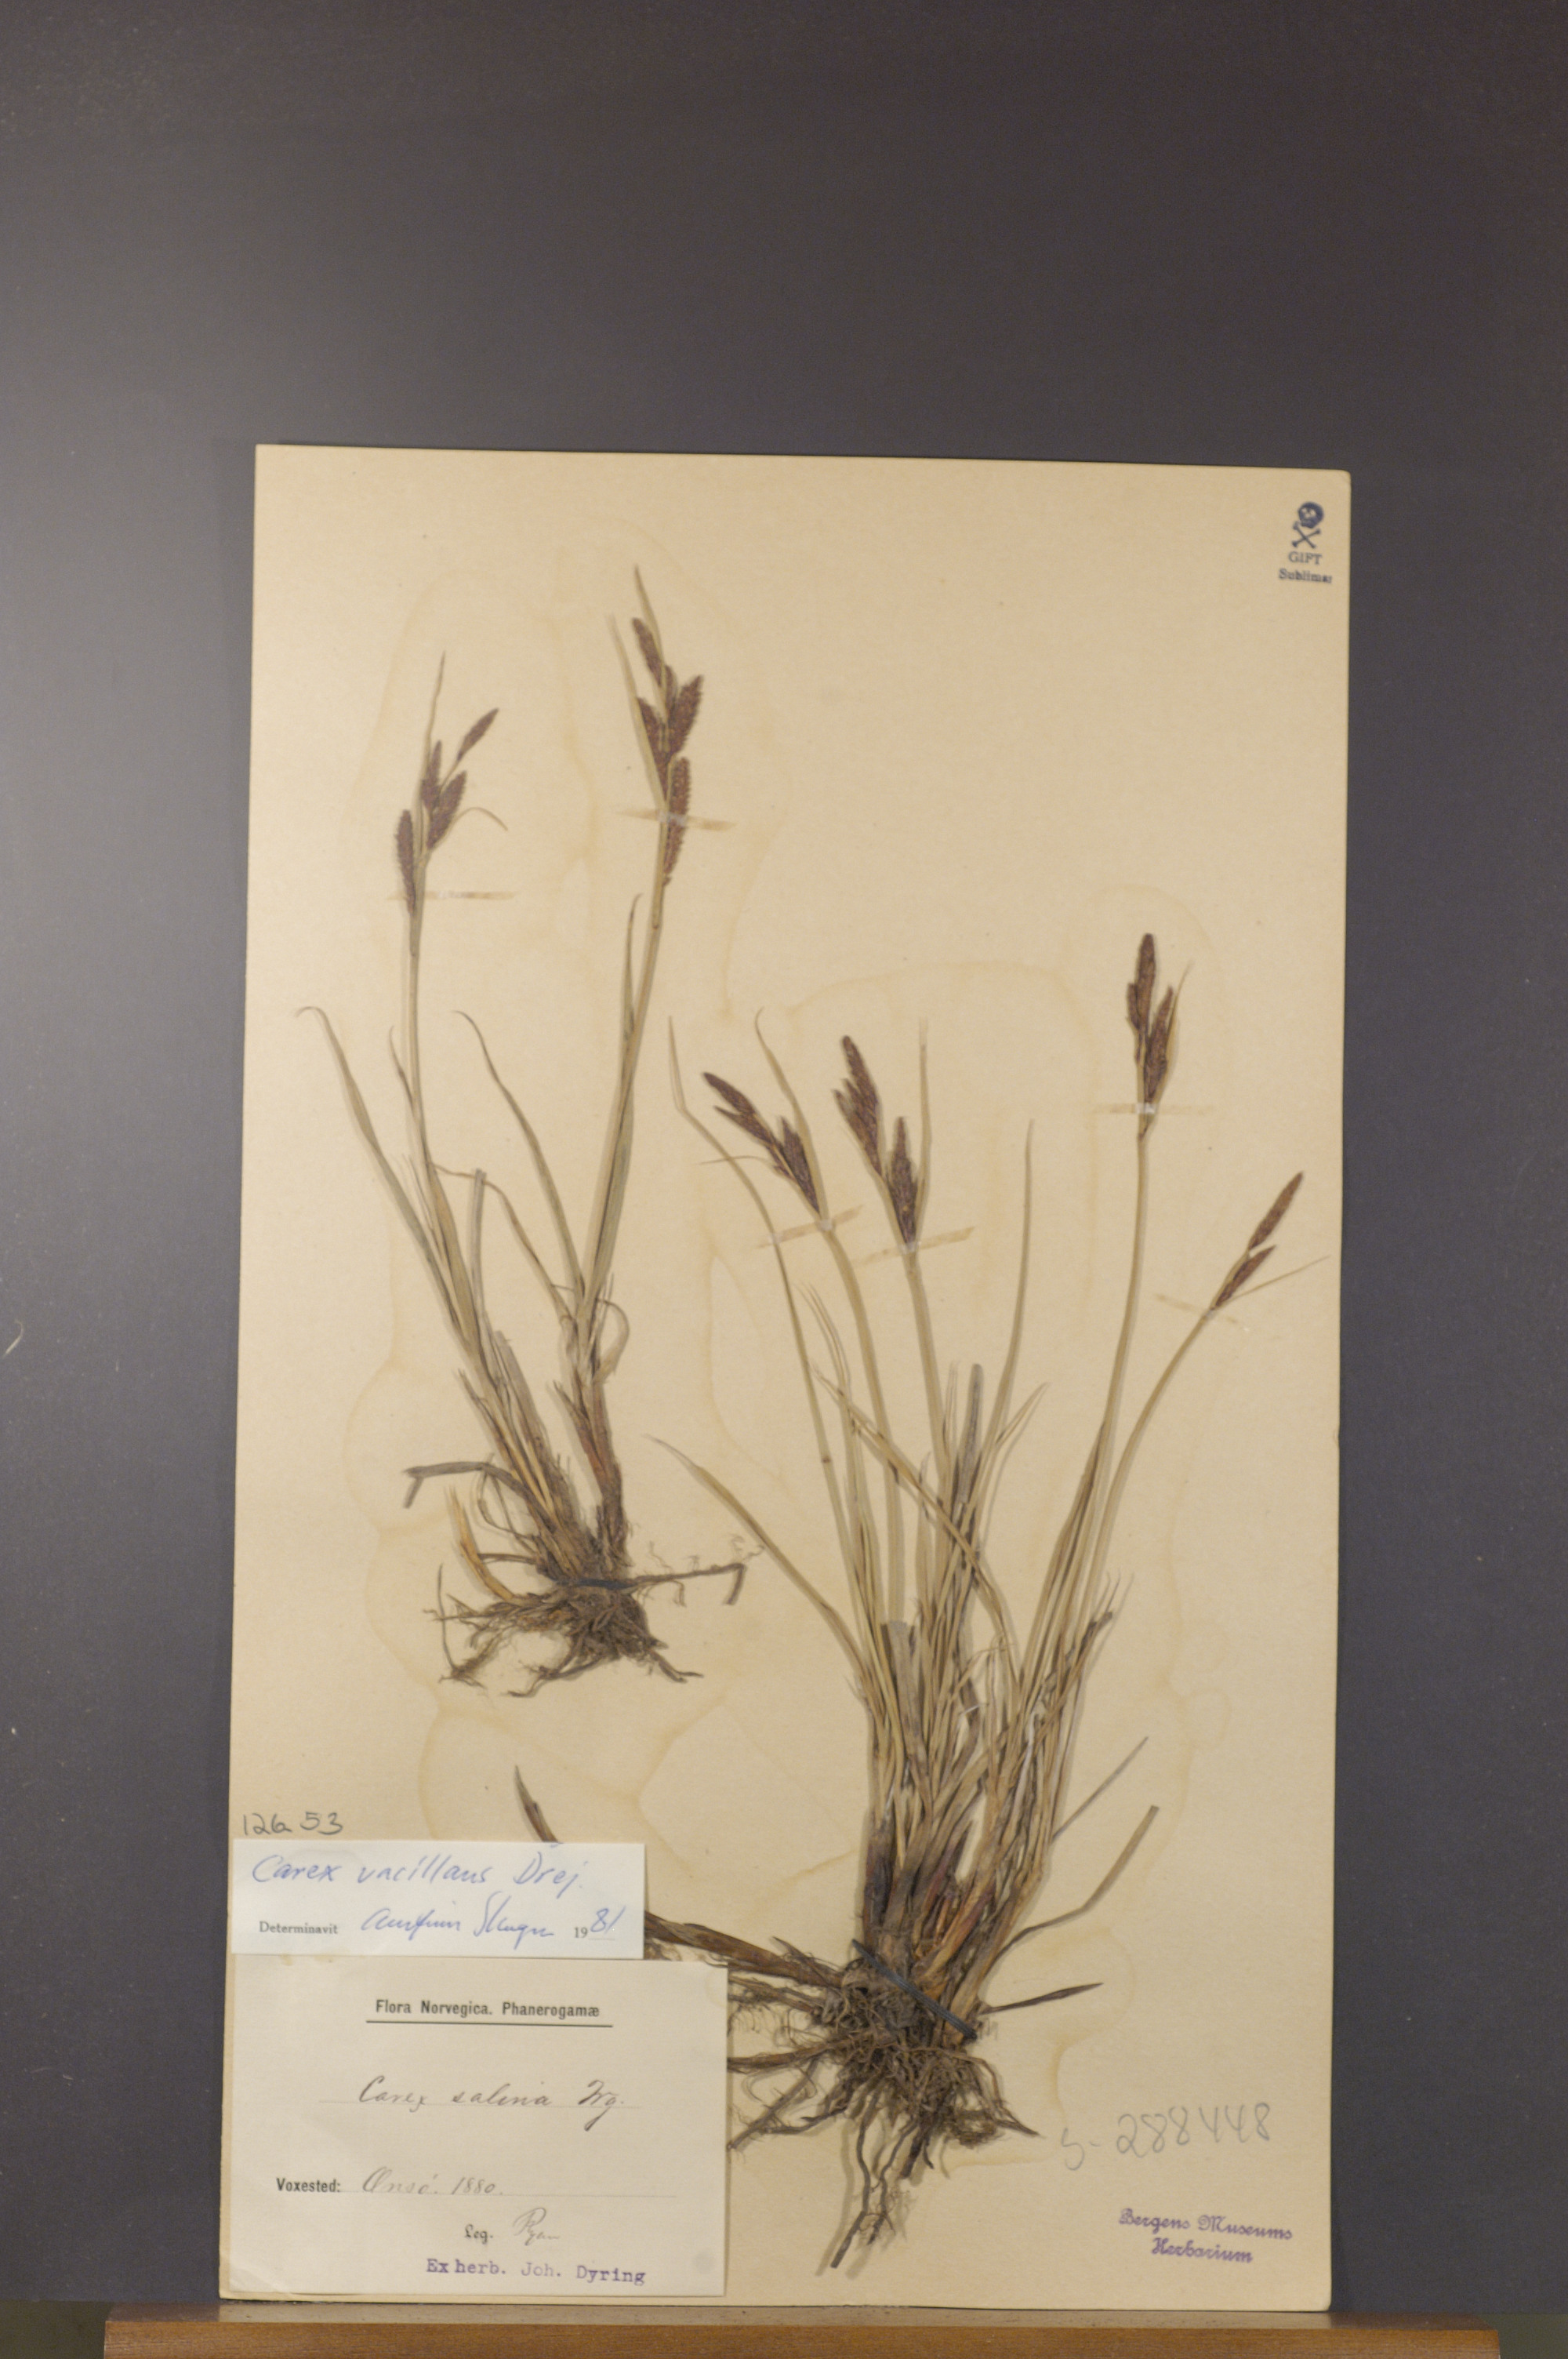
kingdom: Plantae
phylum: Tracheophyta
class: Liliopsida
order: Poales
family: Cyperaceae
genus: Carex
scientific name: Carex vacillans
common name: Sedge
